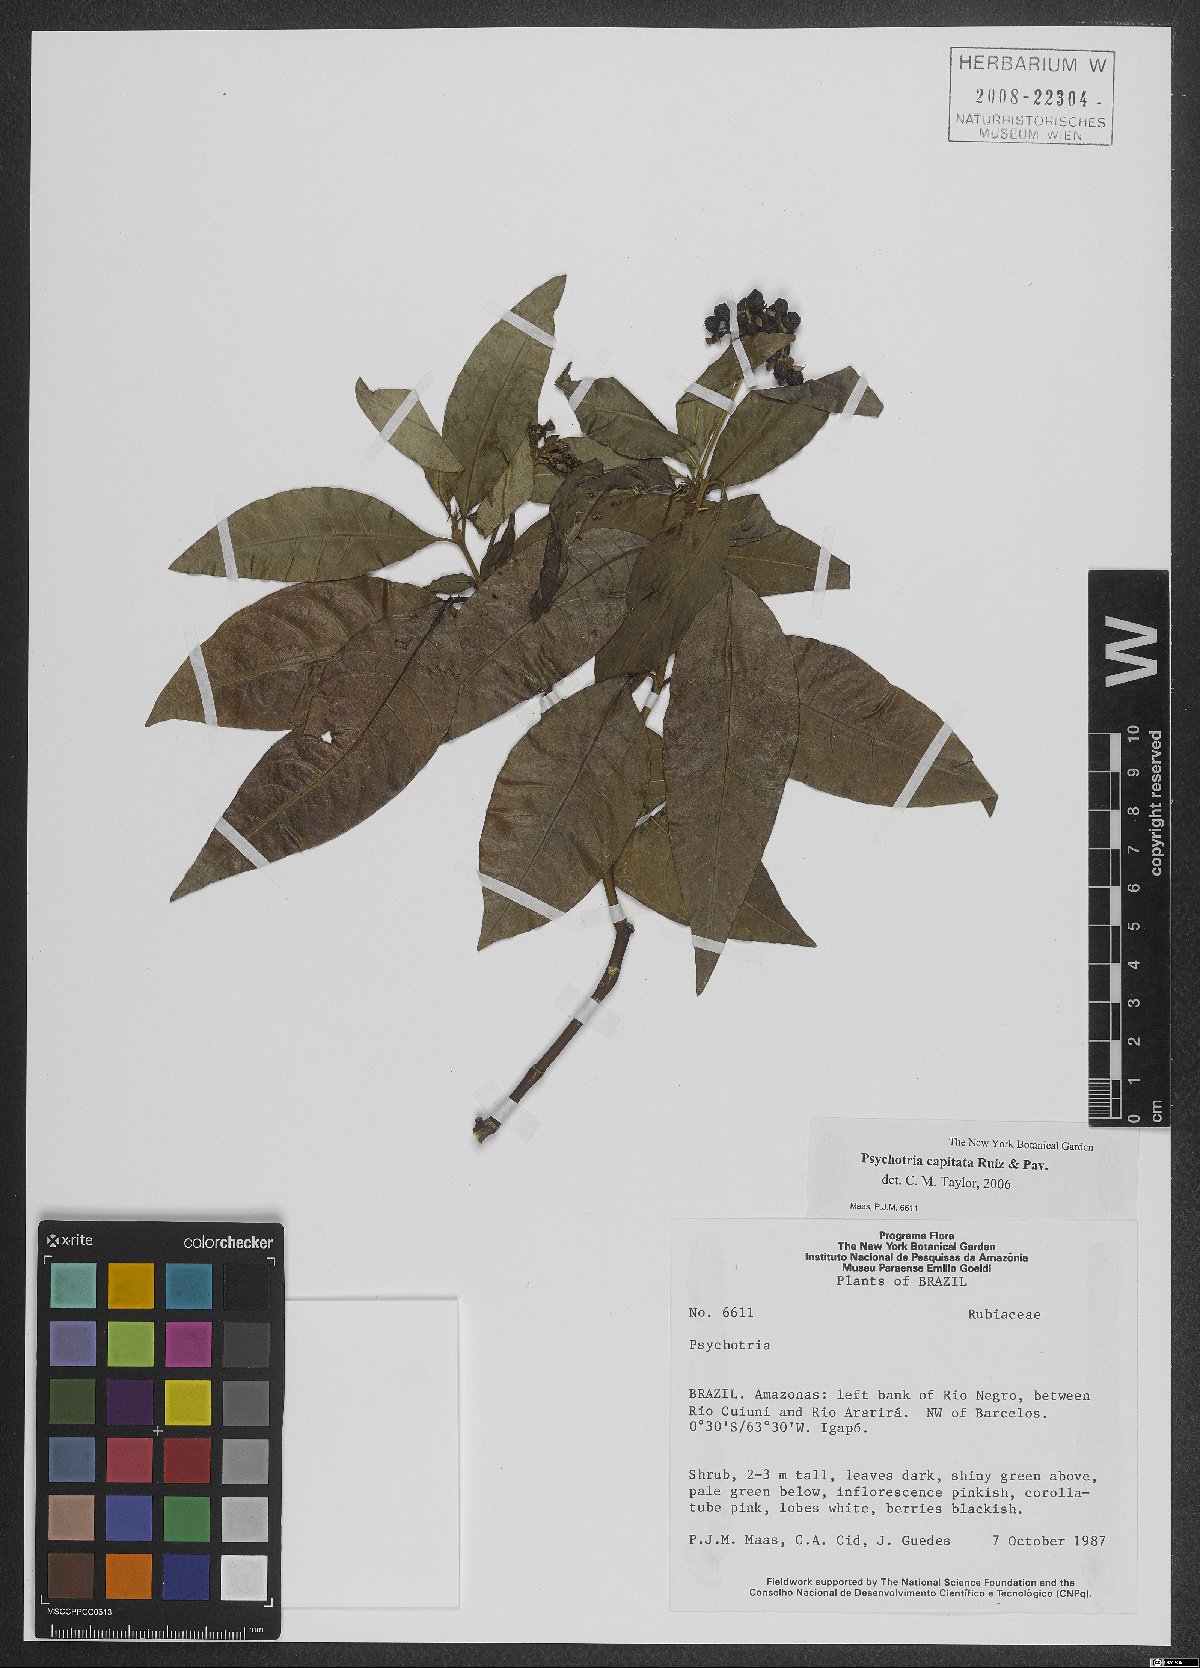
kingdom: Plantae
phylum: Tracheophyta
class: Magnoliopsida
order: Gentianales
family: Rubiaceae
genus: Palicourea
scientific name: Palicourea violacea
